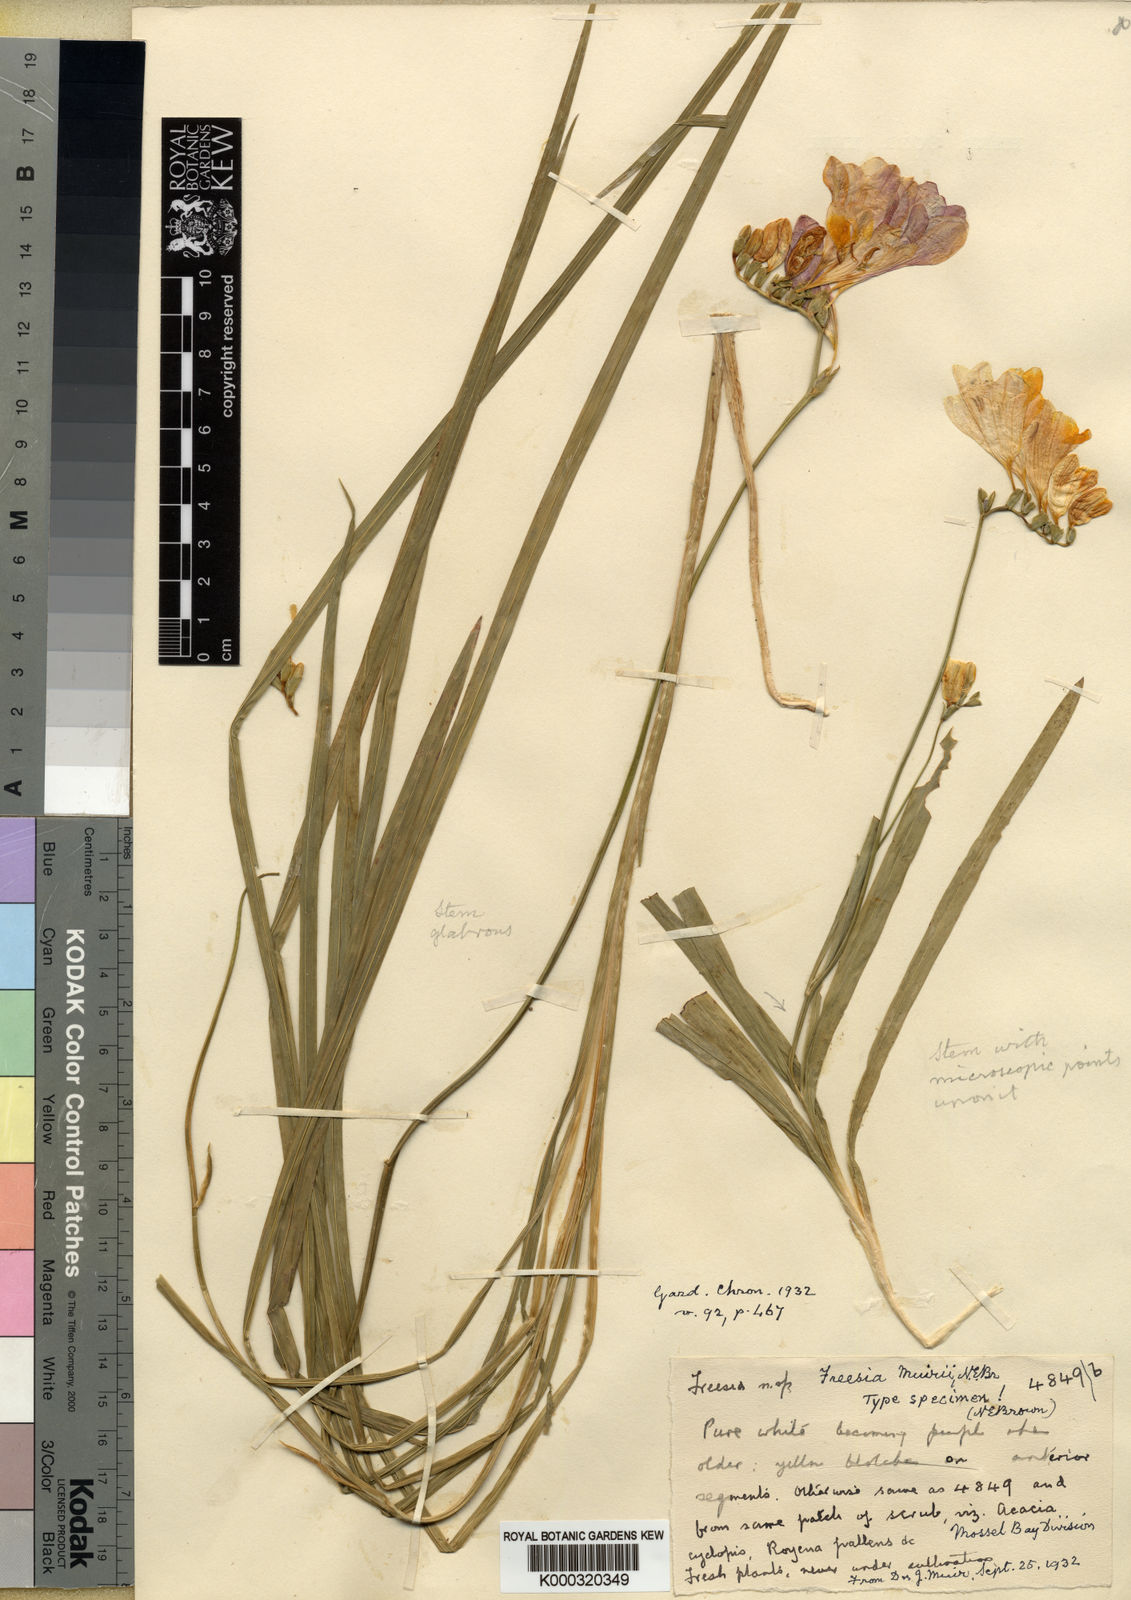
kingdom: Plantae
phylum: Tracheophyta
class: Liliopsida
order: Asparagales
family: Iridaceae
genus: Freesia
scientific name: Freesia leichtlinii
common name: Freesia
